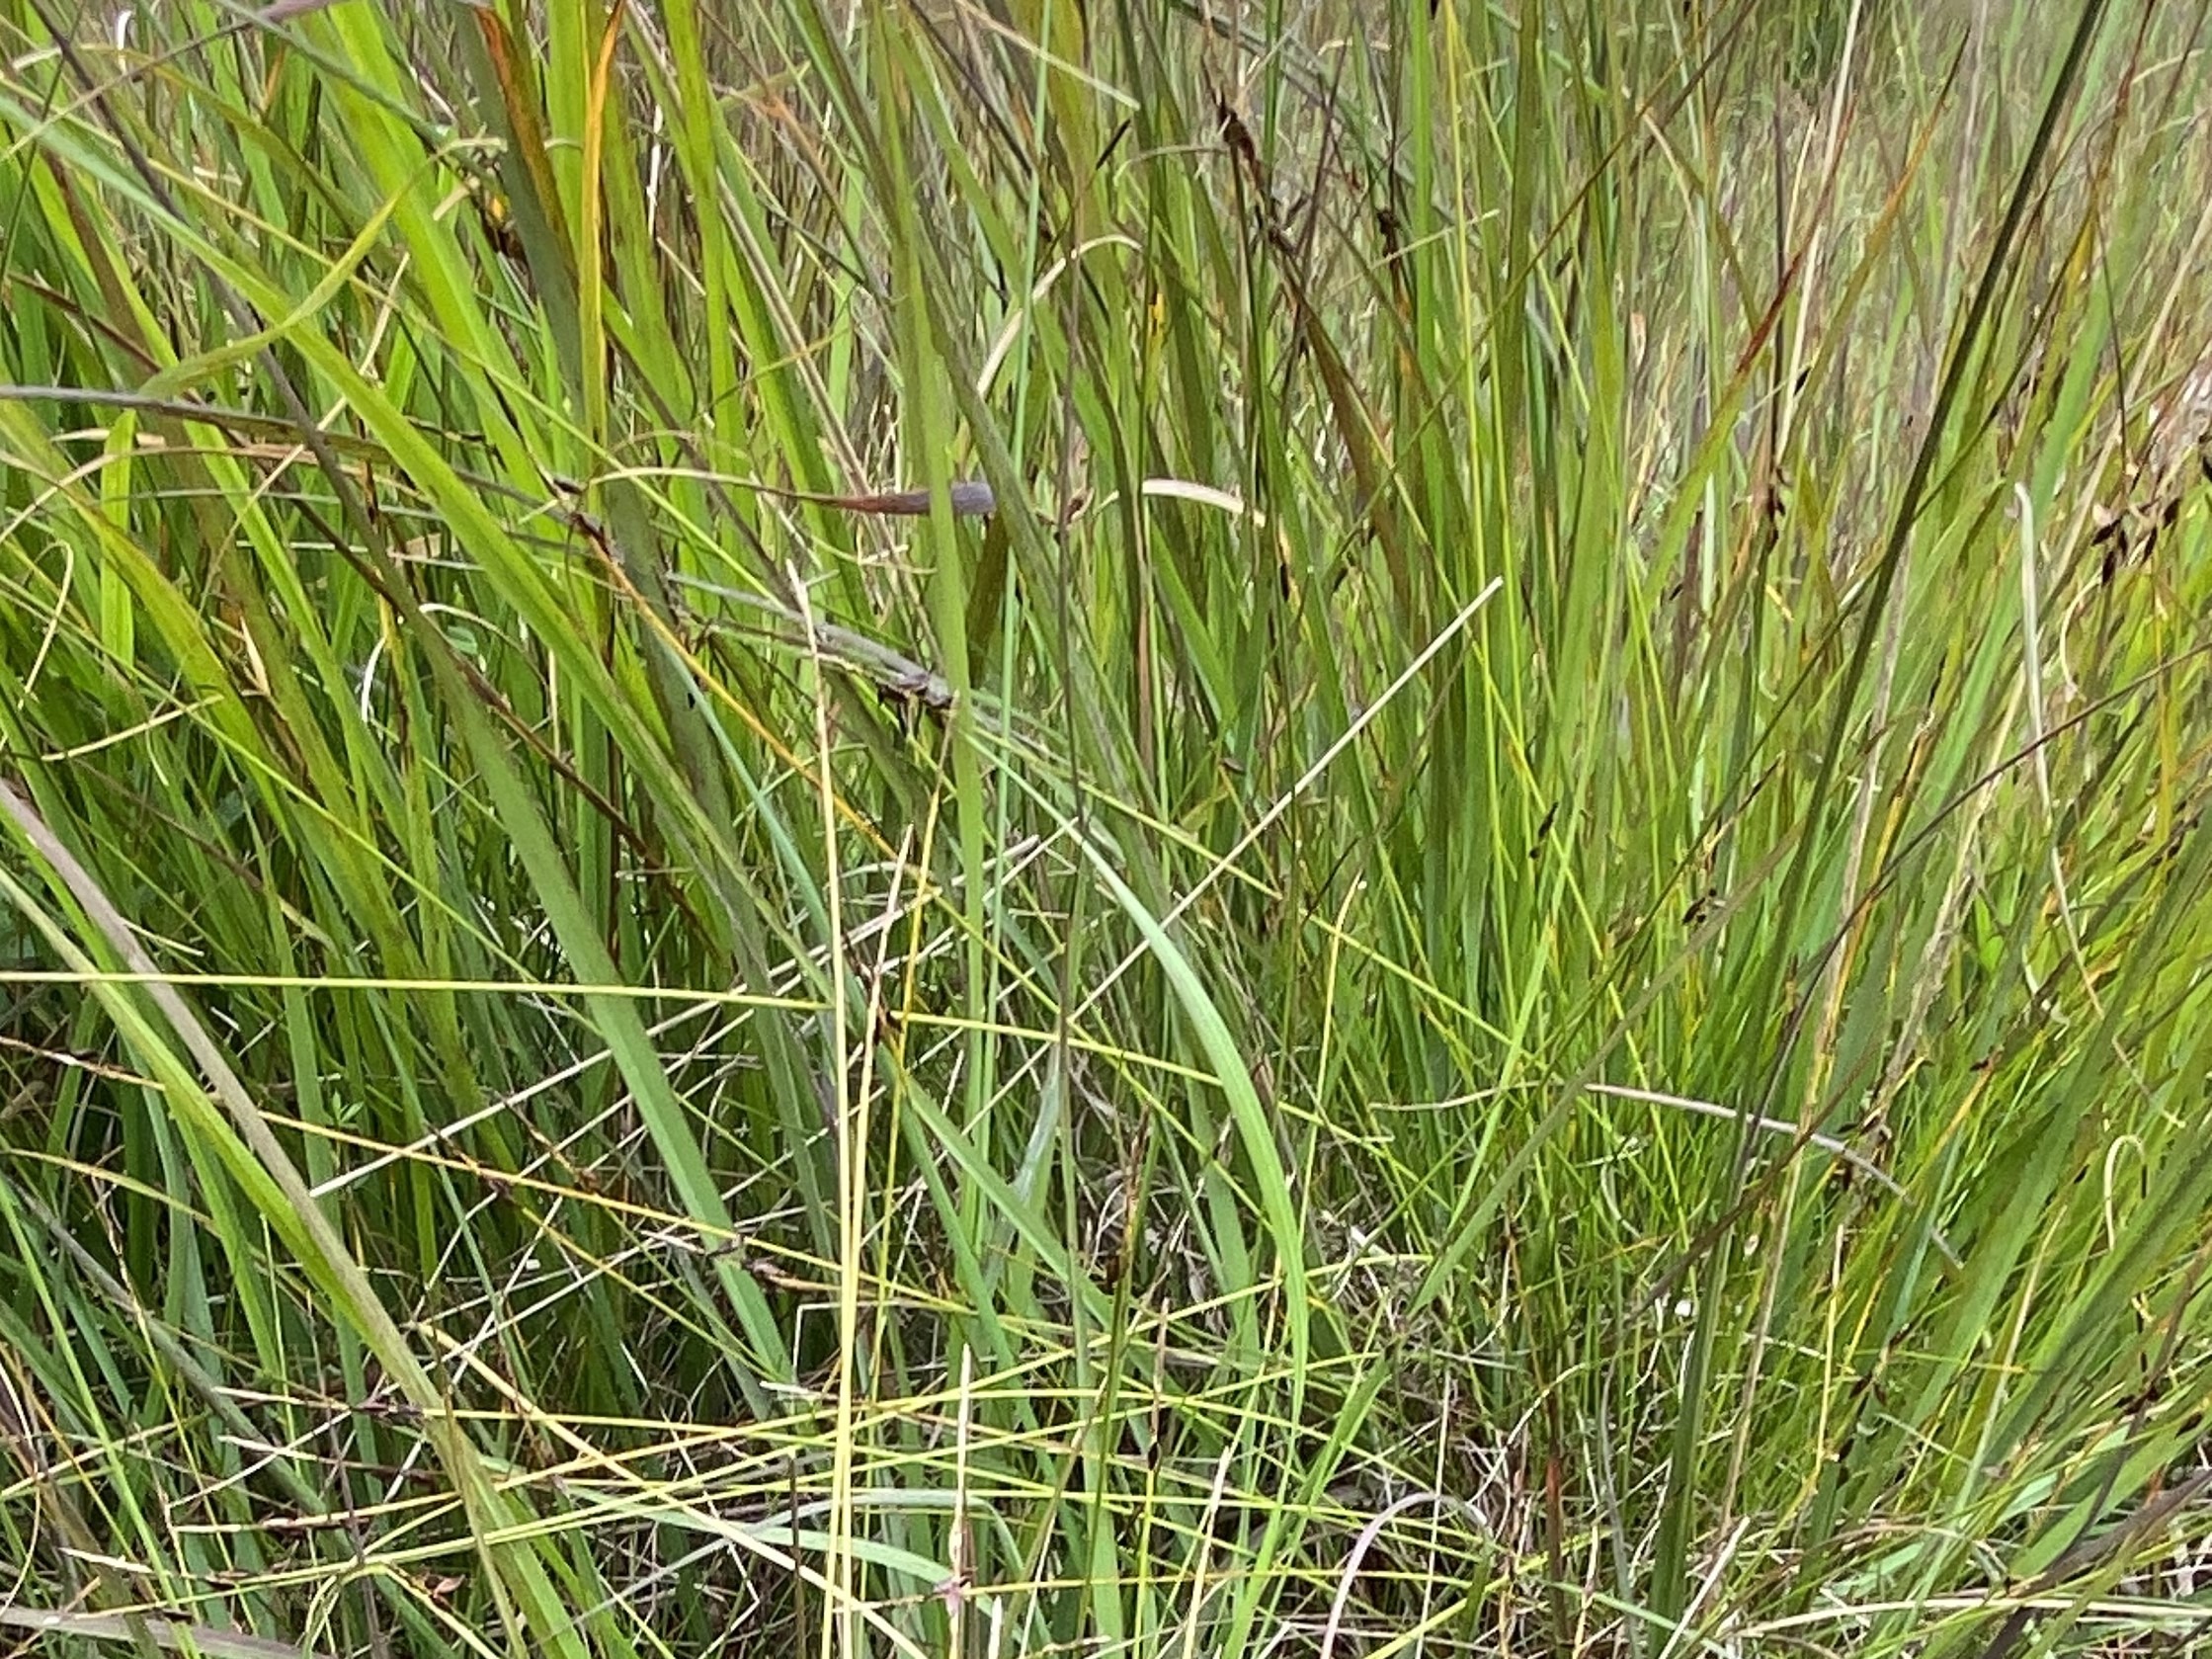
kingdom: Plantae
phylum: Tracheophyta
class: Liliopsida
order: Poales
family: Cyperaceae
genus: Carex
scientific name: Carex pulicaris
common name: Loppe-star
